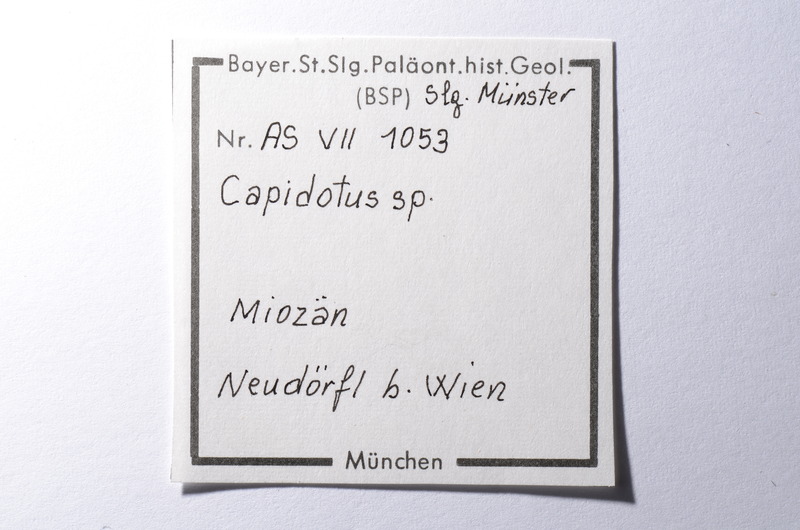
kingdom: Animalia
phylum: Chordata
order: Cypriniformes
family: Cyprinidae
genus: Capitodus
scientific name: Capitodus
